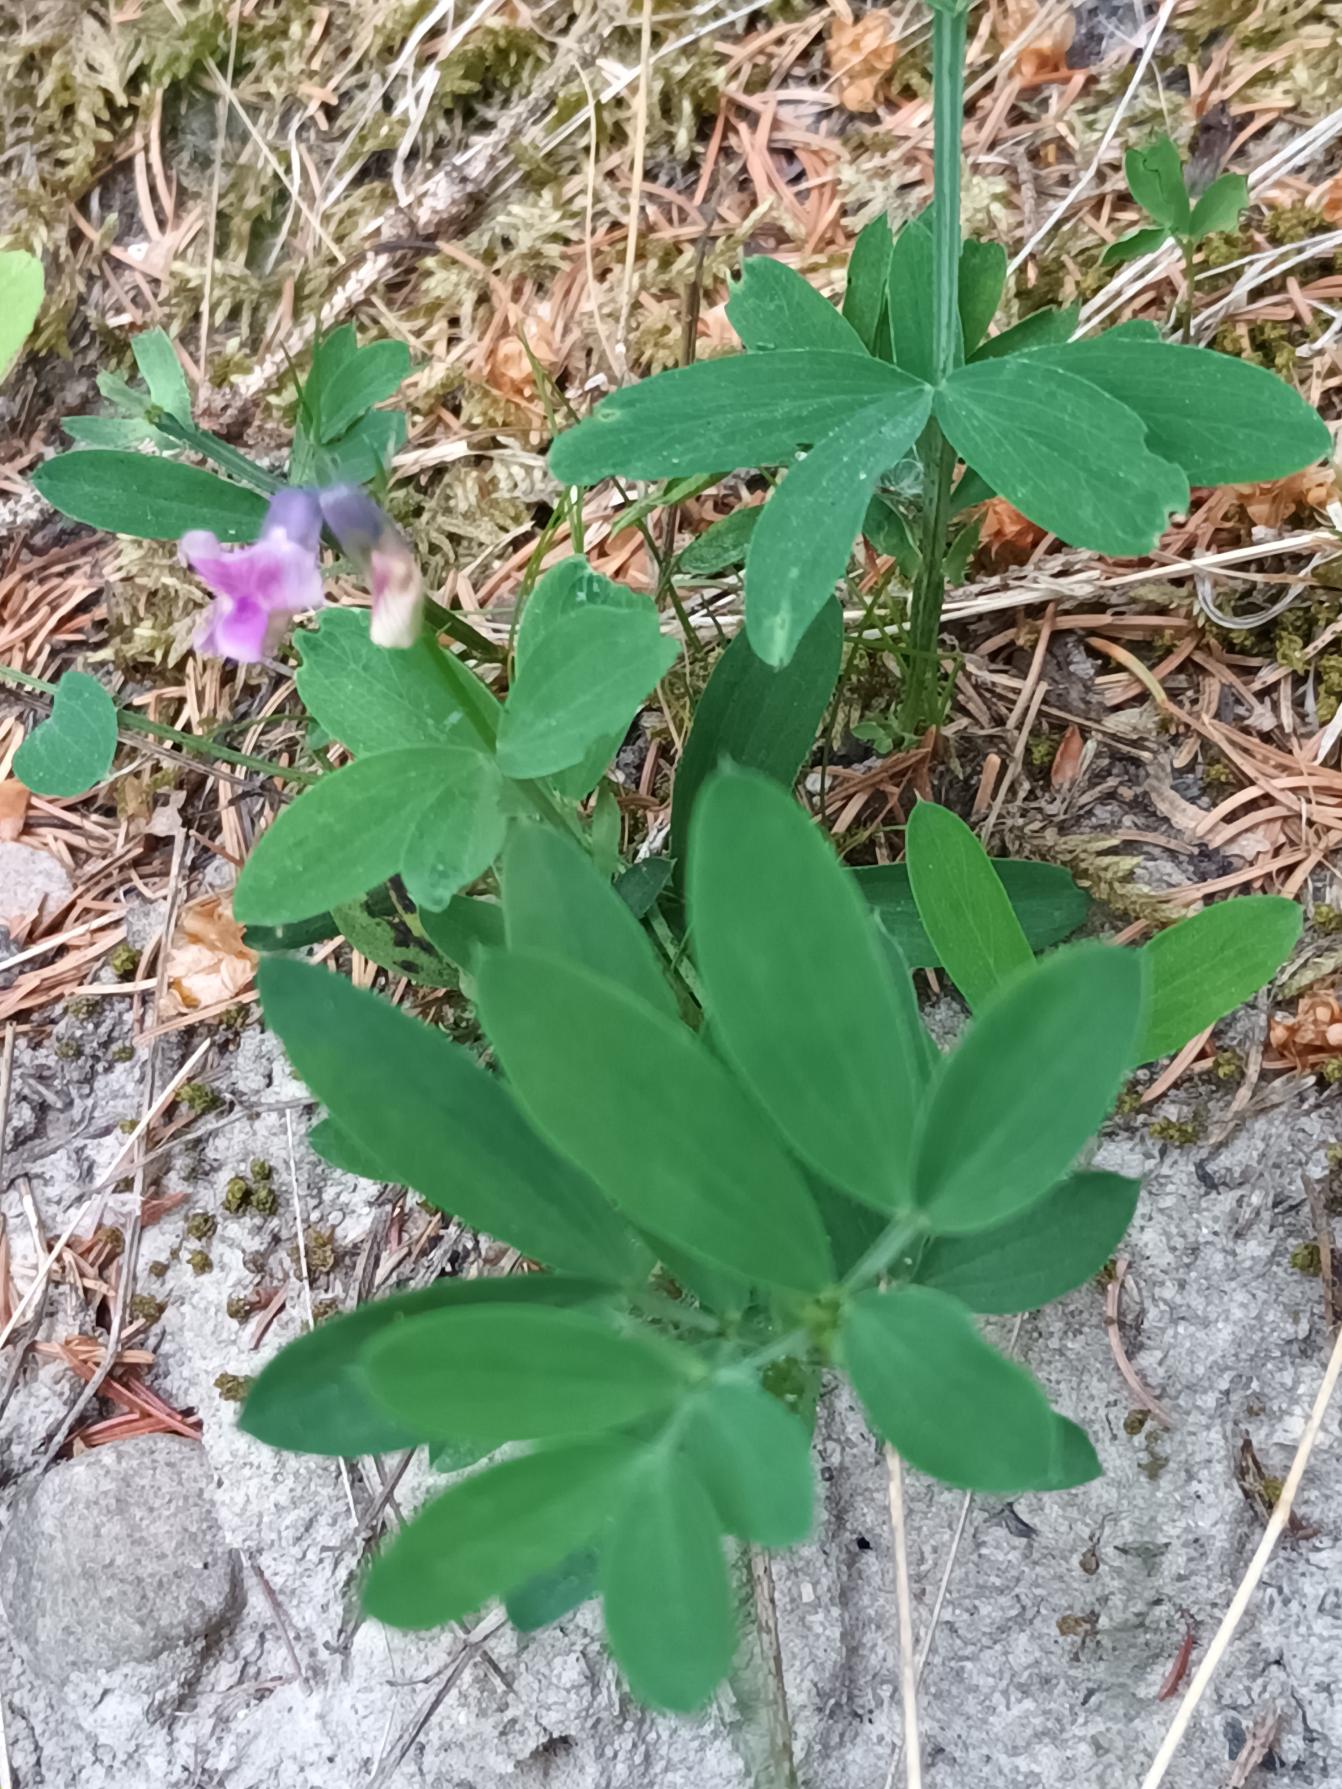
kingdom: Plantae
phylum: Tracheophyta
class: Magnoliopsida
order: Fabales
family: Fabaceae
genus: Lathyrus
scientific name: Lathyrus linifolius
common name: Krat-fladbælg
